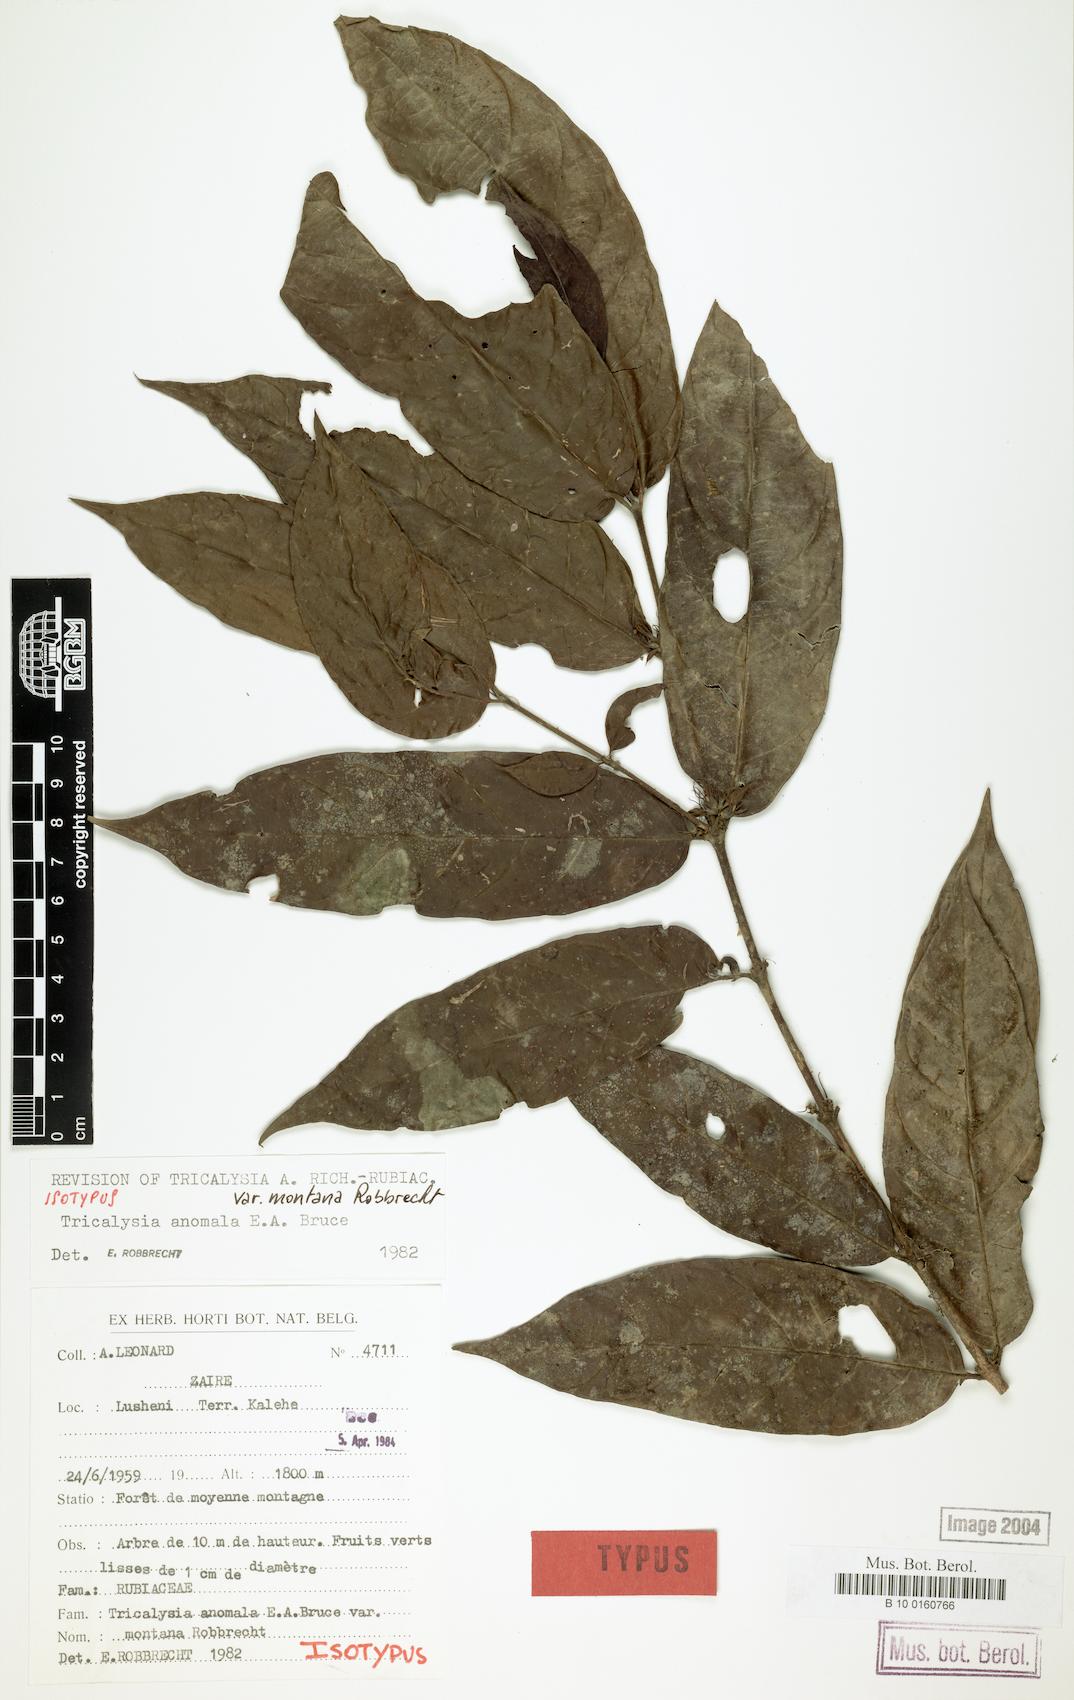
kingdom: Plantae
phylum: Tracheophyta
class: Magnoliopsida
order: Gentianales
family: Rubiaceae
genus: Tricalysia
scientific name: Tricalysia anomala
